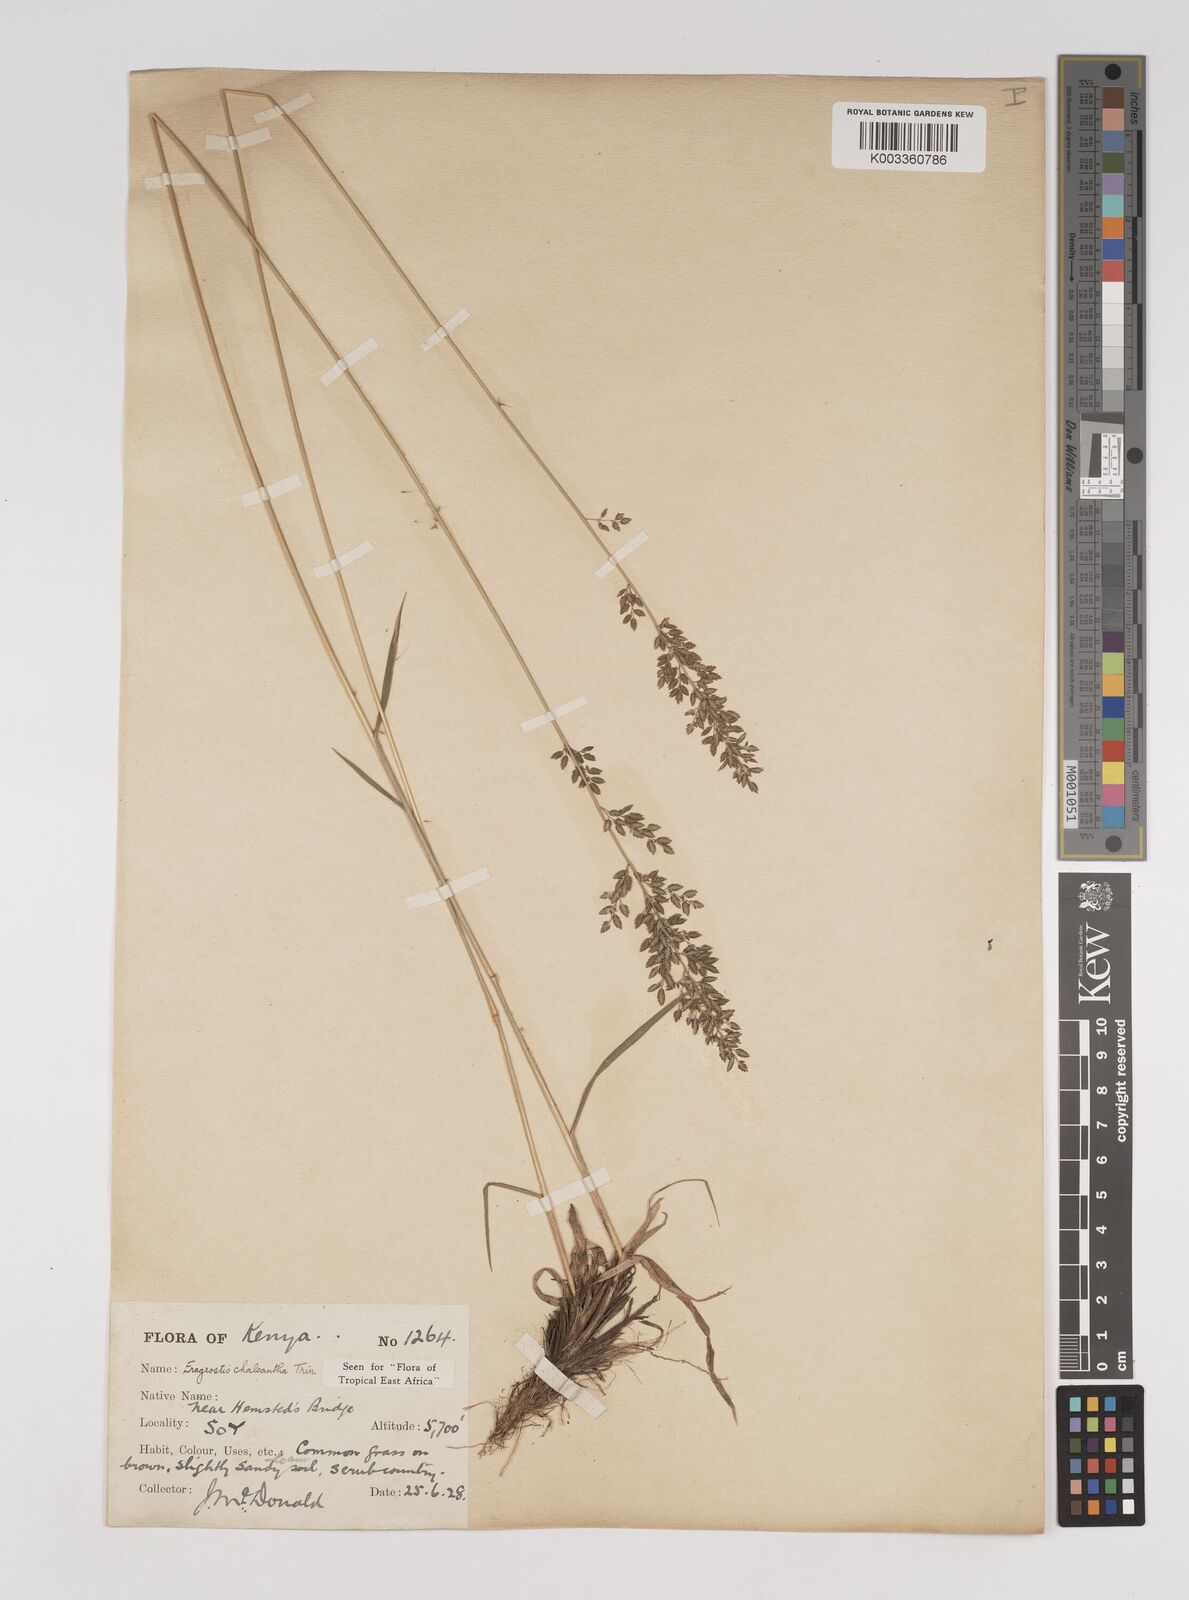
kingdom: Plantae
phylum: Tracheophyta
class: Liliopsida
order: Poales
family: Poaceae
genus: Eragrostis
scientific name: Eragrostis racemosa
